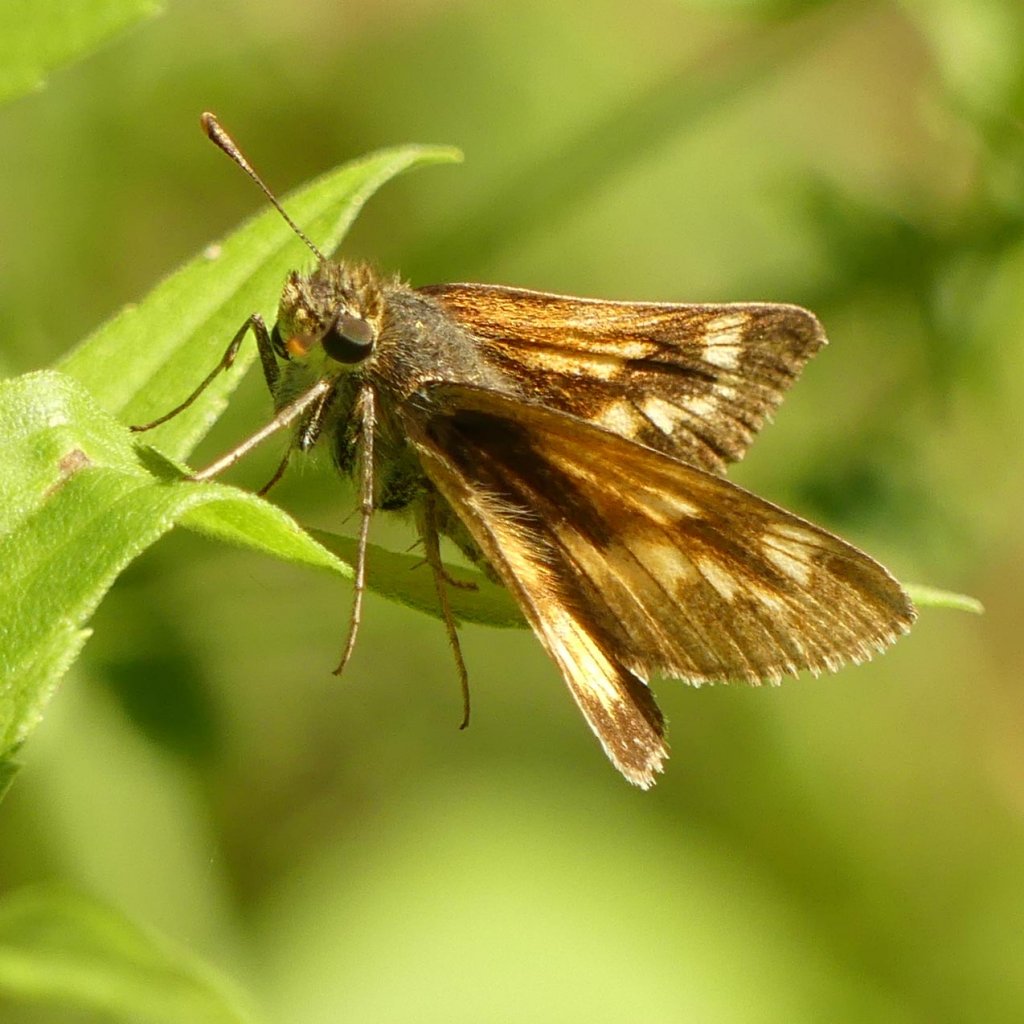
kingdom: Animalia
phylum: Arthropoda
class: Insecta
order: Lepidoptera
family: Hesperiidae
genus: Polites
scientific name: Polites
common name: Long Dash Skipper
